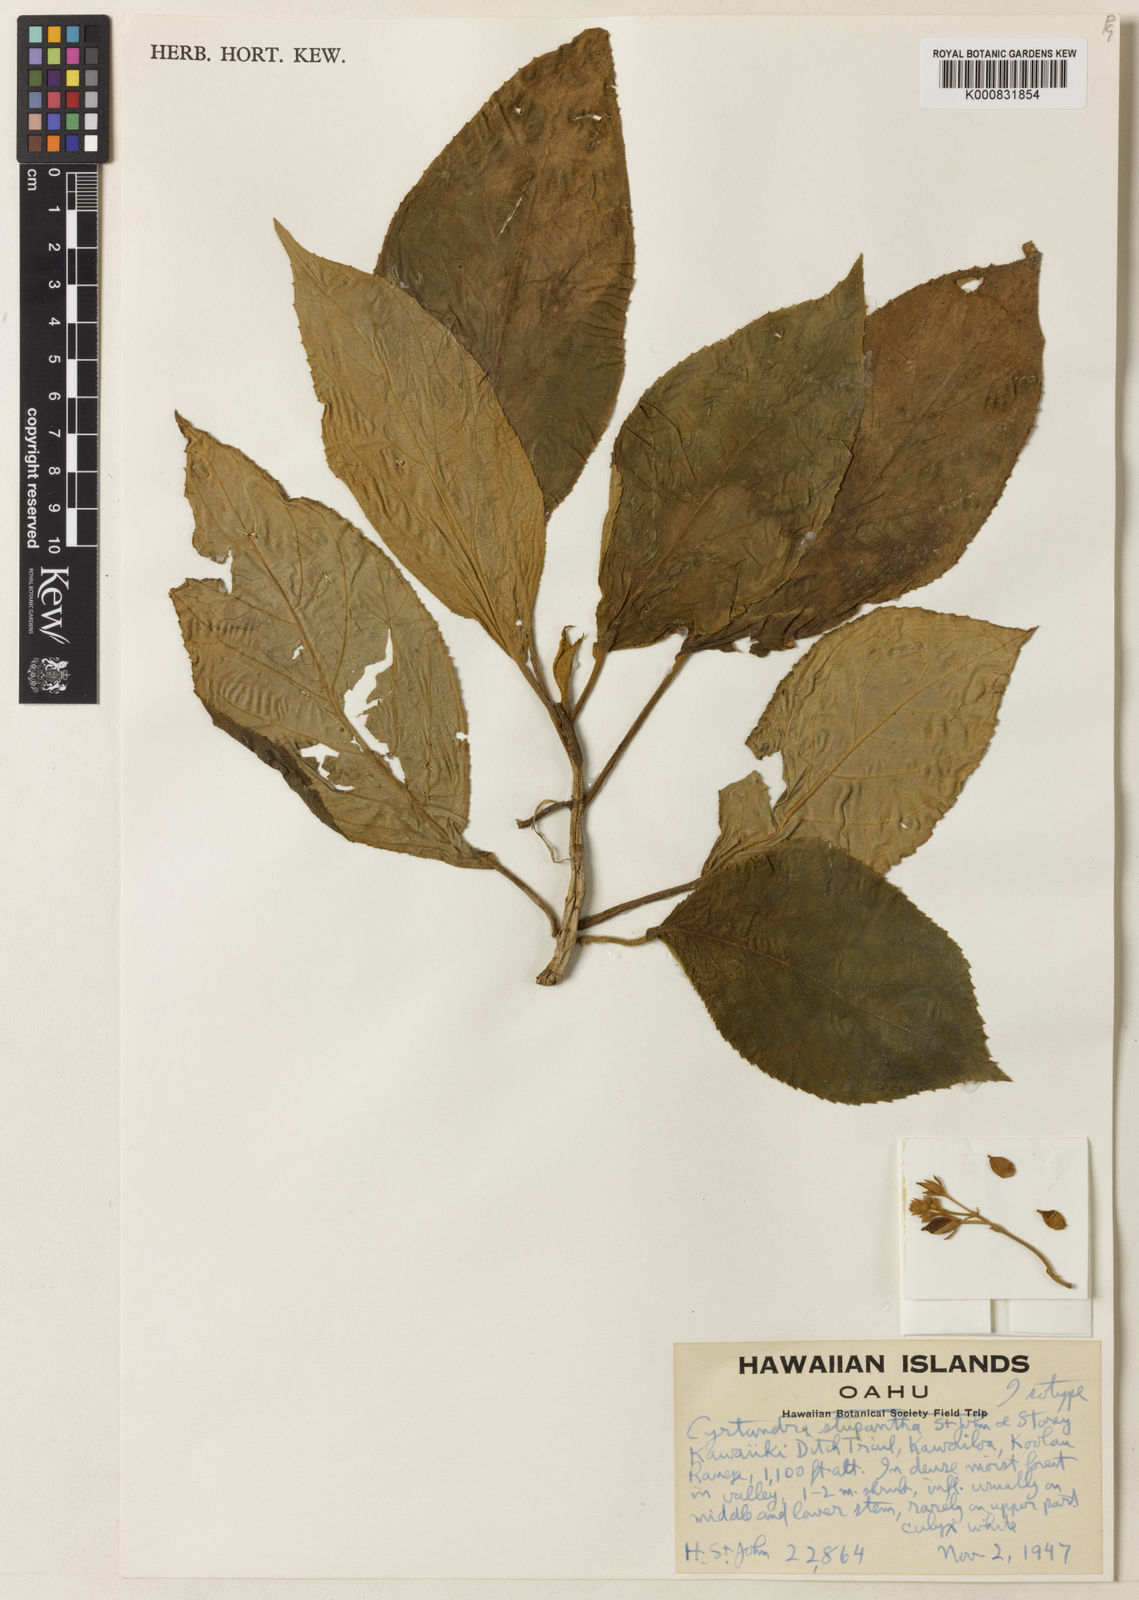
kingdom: Plantae
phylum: Tracheophyta
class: Magnoliopsida
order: Lamiales
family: Gesneriaceae
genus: Cyrtandra
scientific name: Cyrtandra laxiflora
